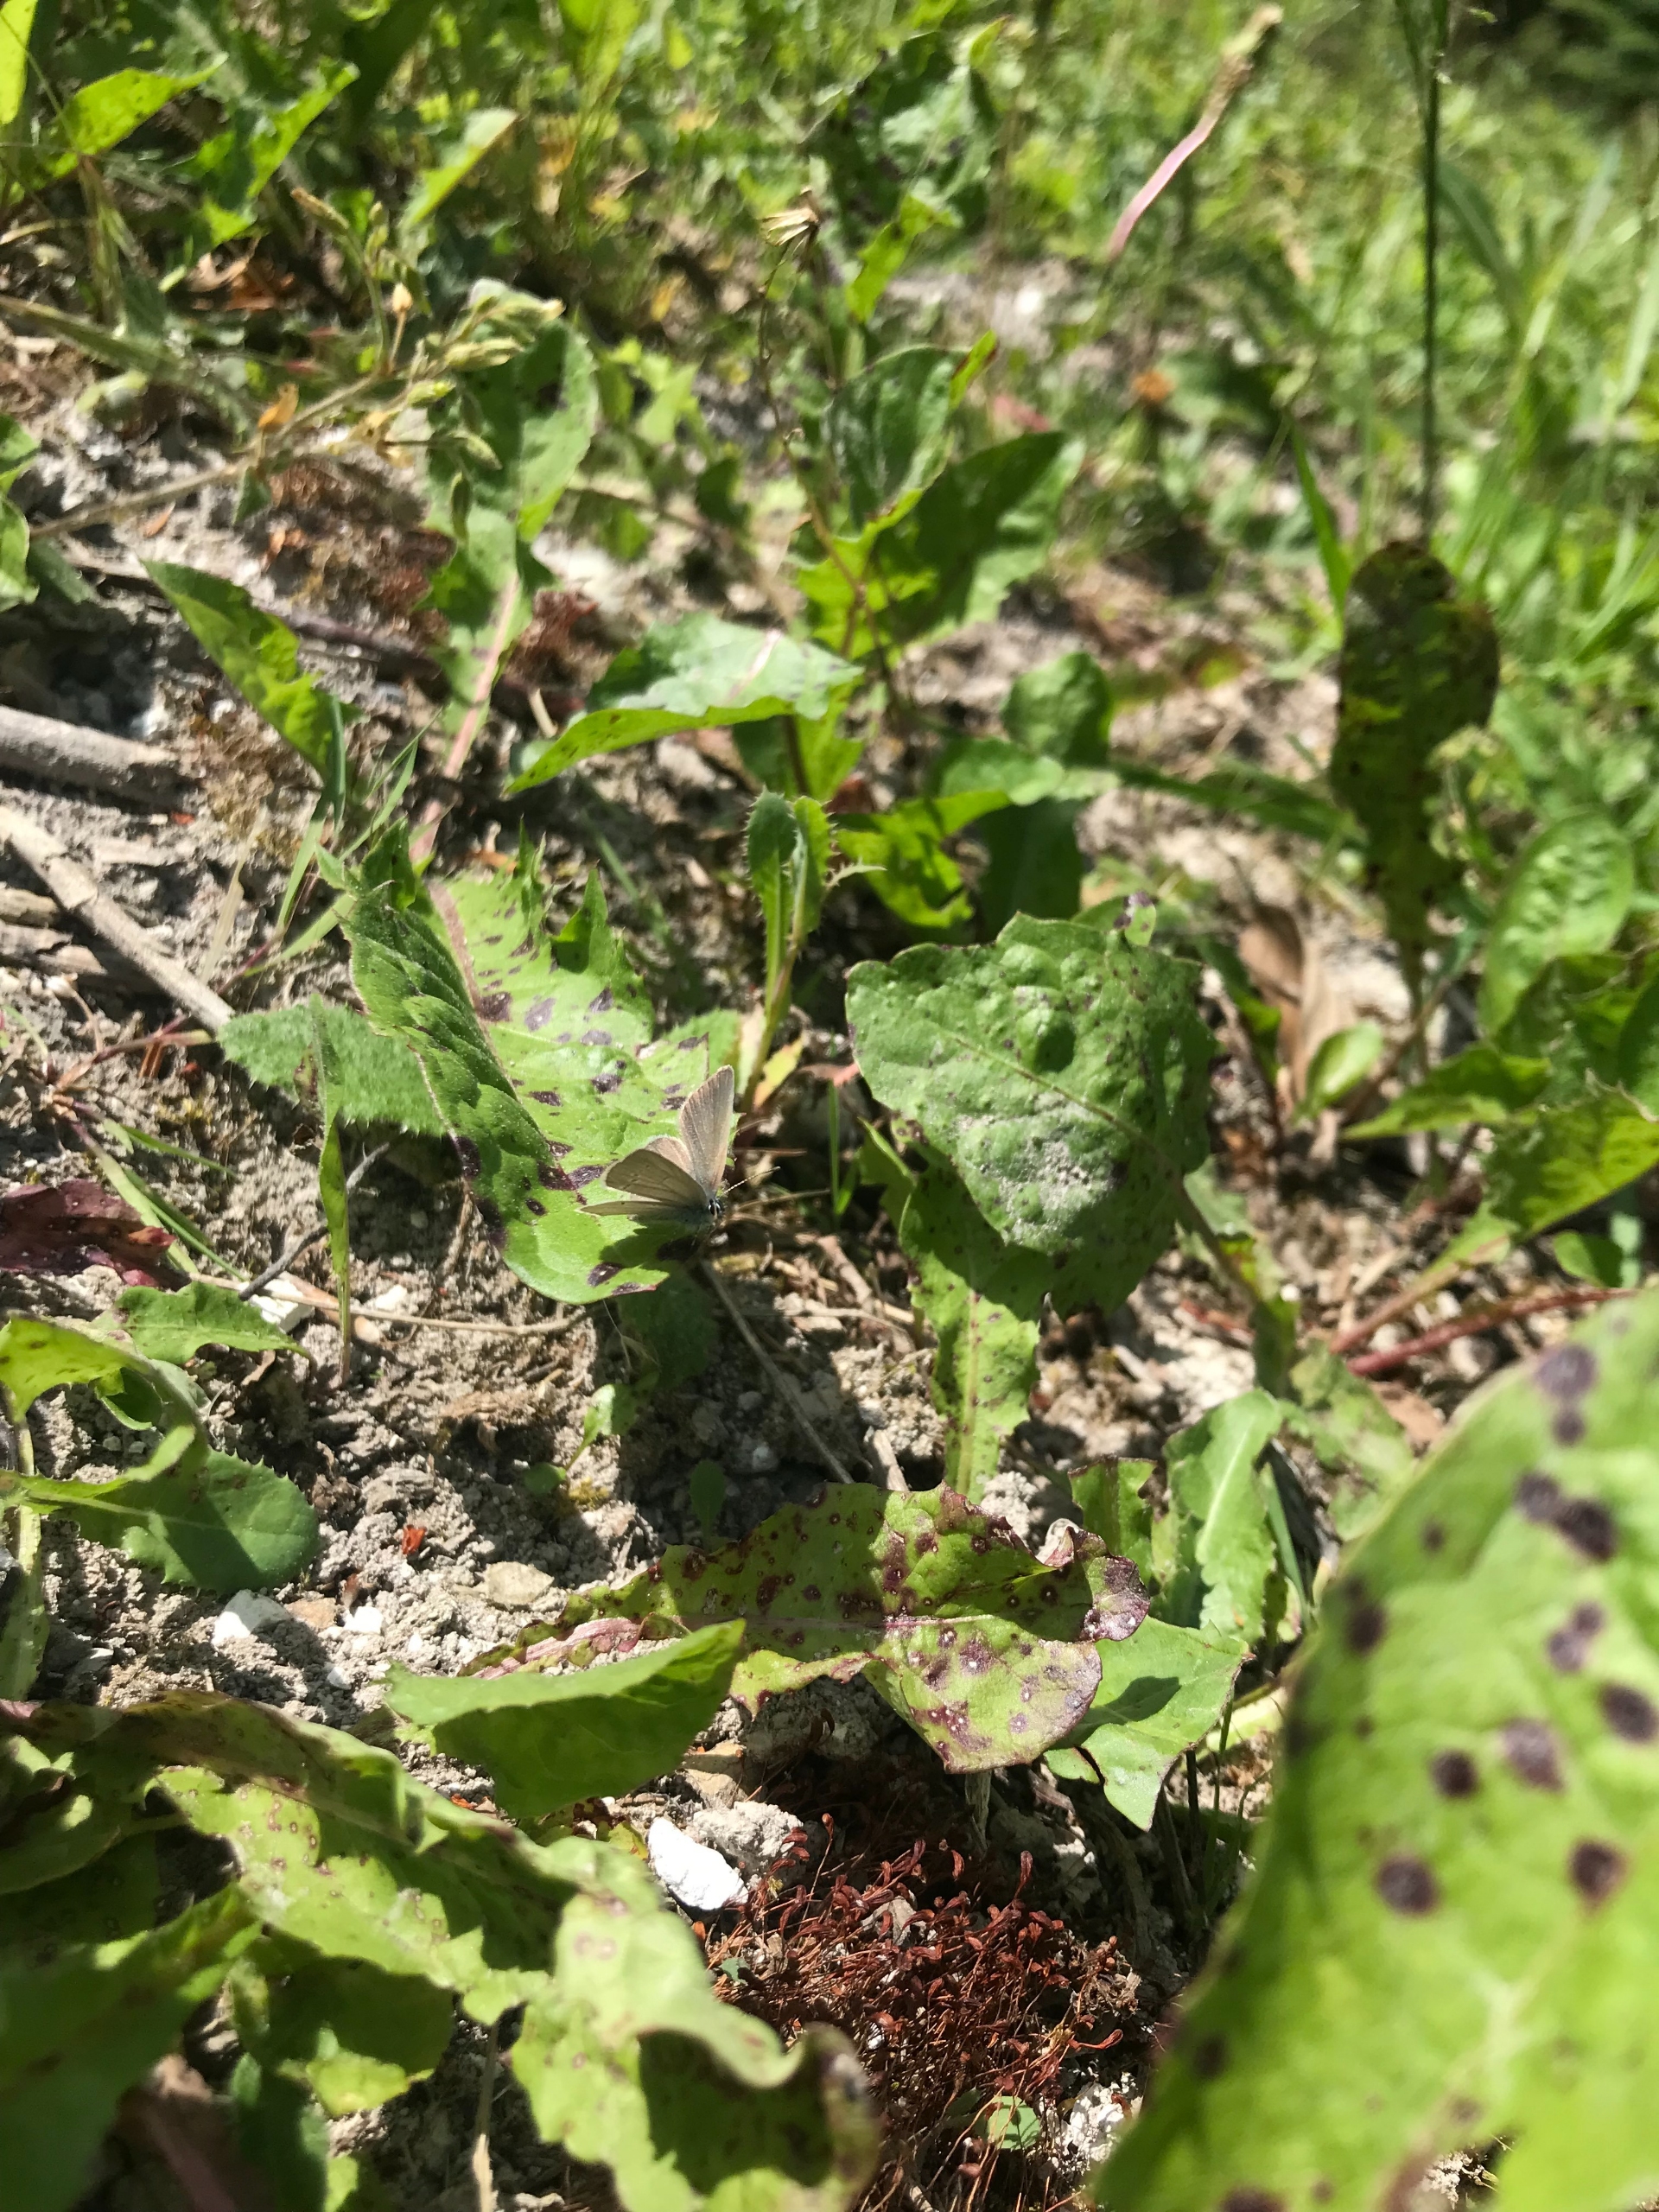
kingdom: Animalia
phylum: Arthropoda
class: Insecta
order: Lepidoptera
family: Lycaenidae
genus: Cupido
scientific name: Cupido minimus
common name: Dværgblåfugl
